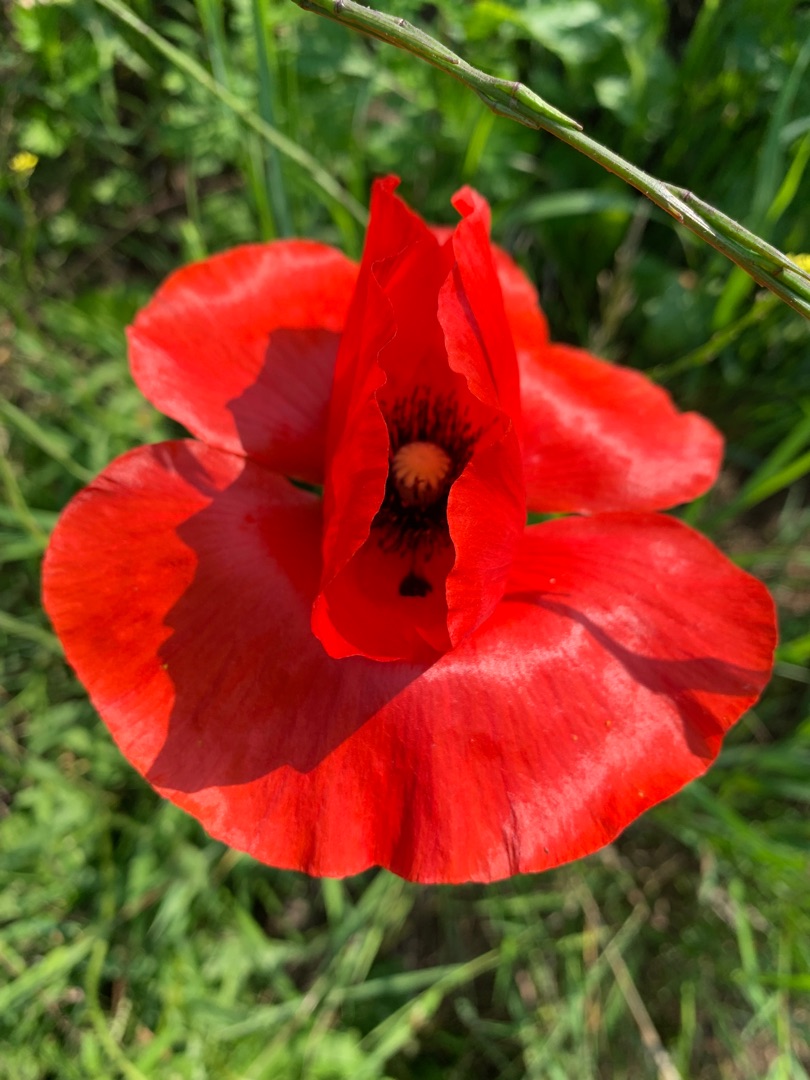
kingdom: Plantae
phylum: Tracheophyta
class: Magnoliopsida
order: Ranunculales
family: Papaveraceae
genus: Papaver
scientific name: Papaver rhoeas
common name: Korn-valmue
